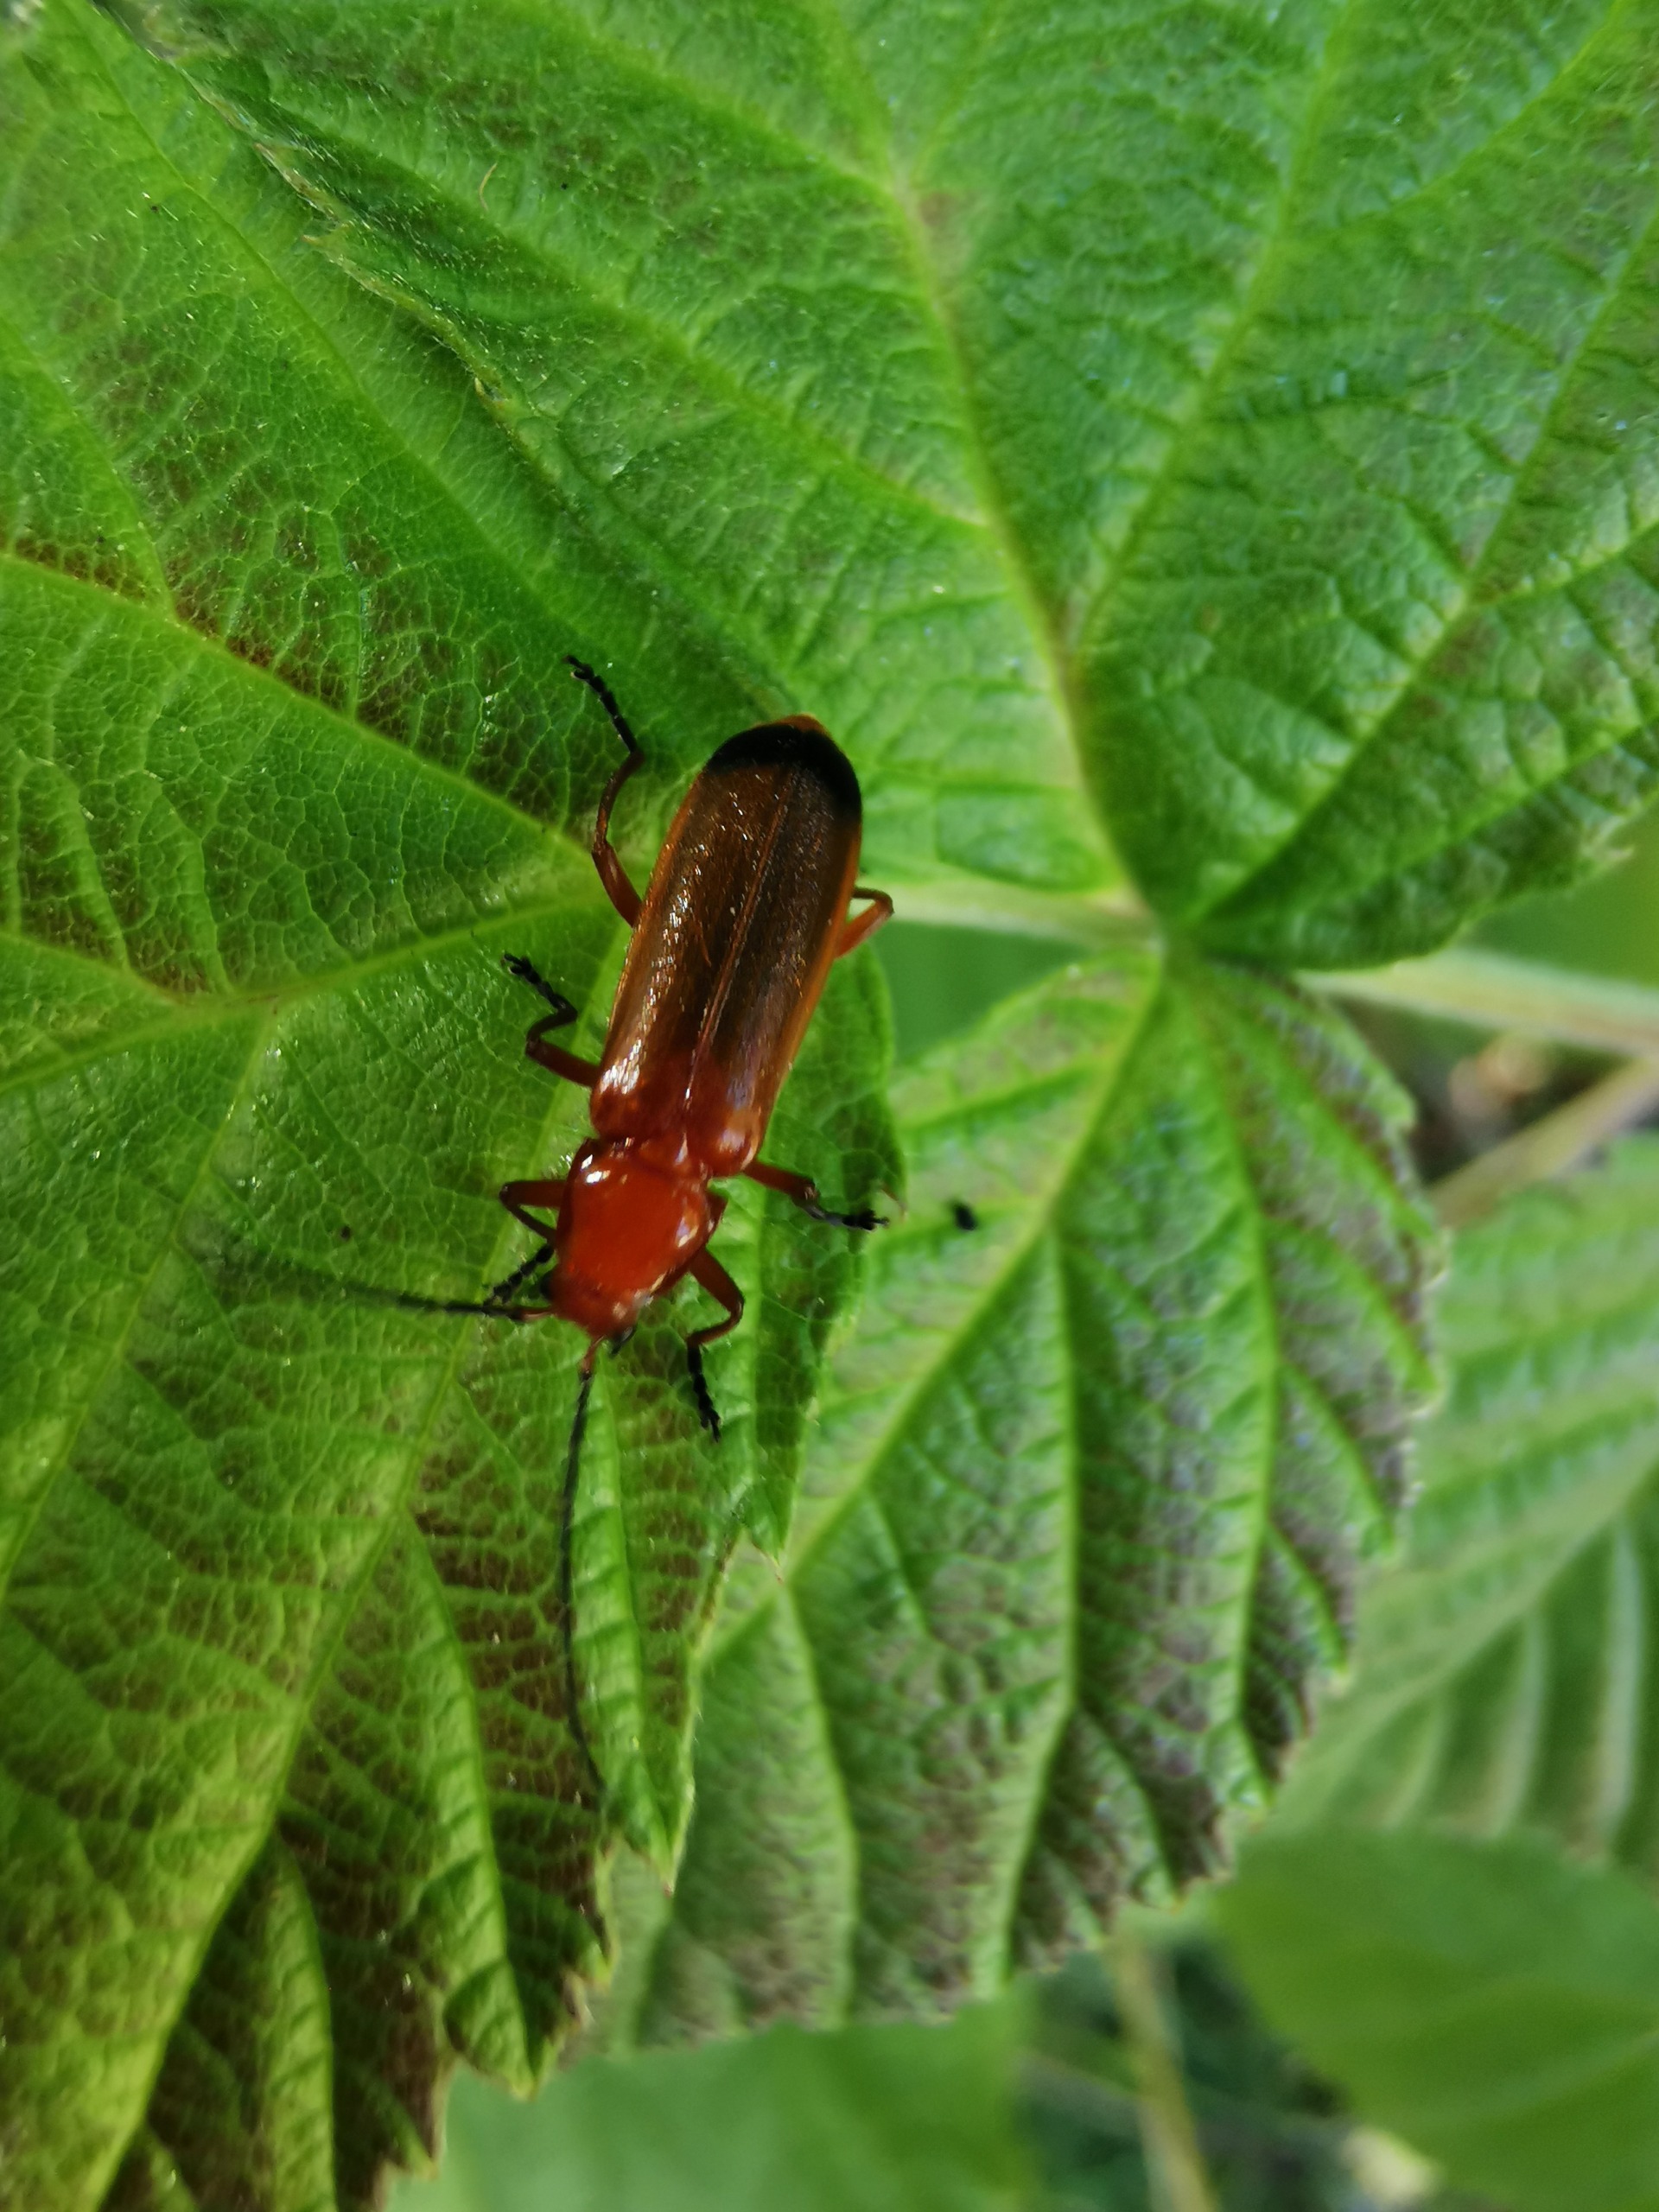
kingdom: Animalia
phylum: Arthropoda
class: Insecta
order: Coleoptera
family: Cantharidae
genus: Rhagonycha
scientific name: Rhagonycha fulva
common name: Præstebille
